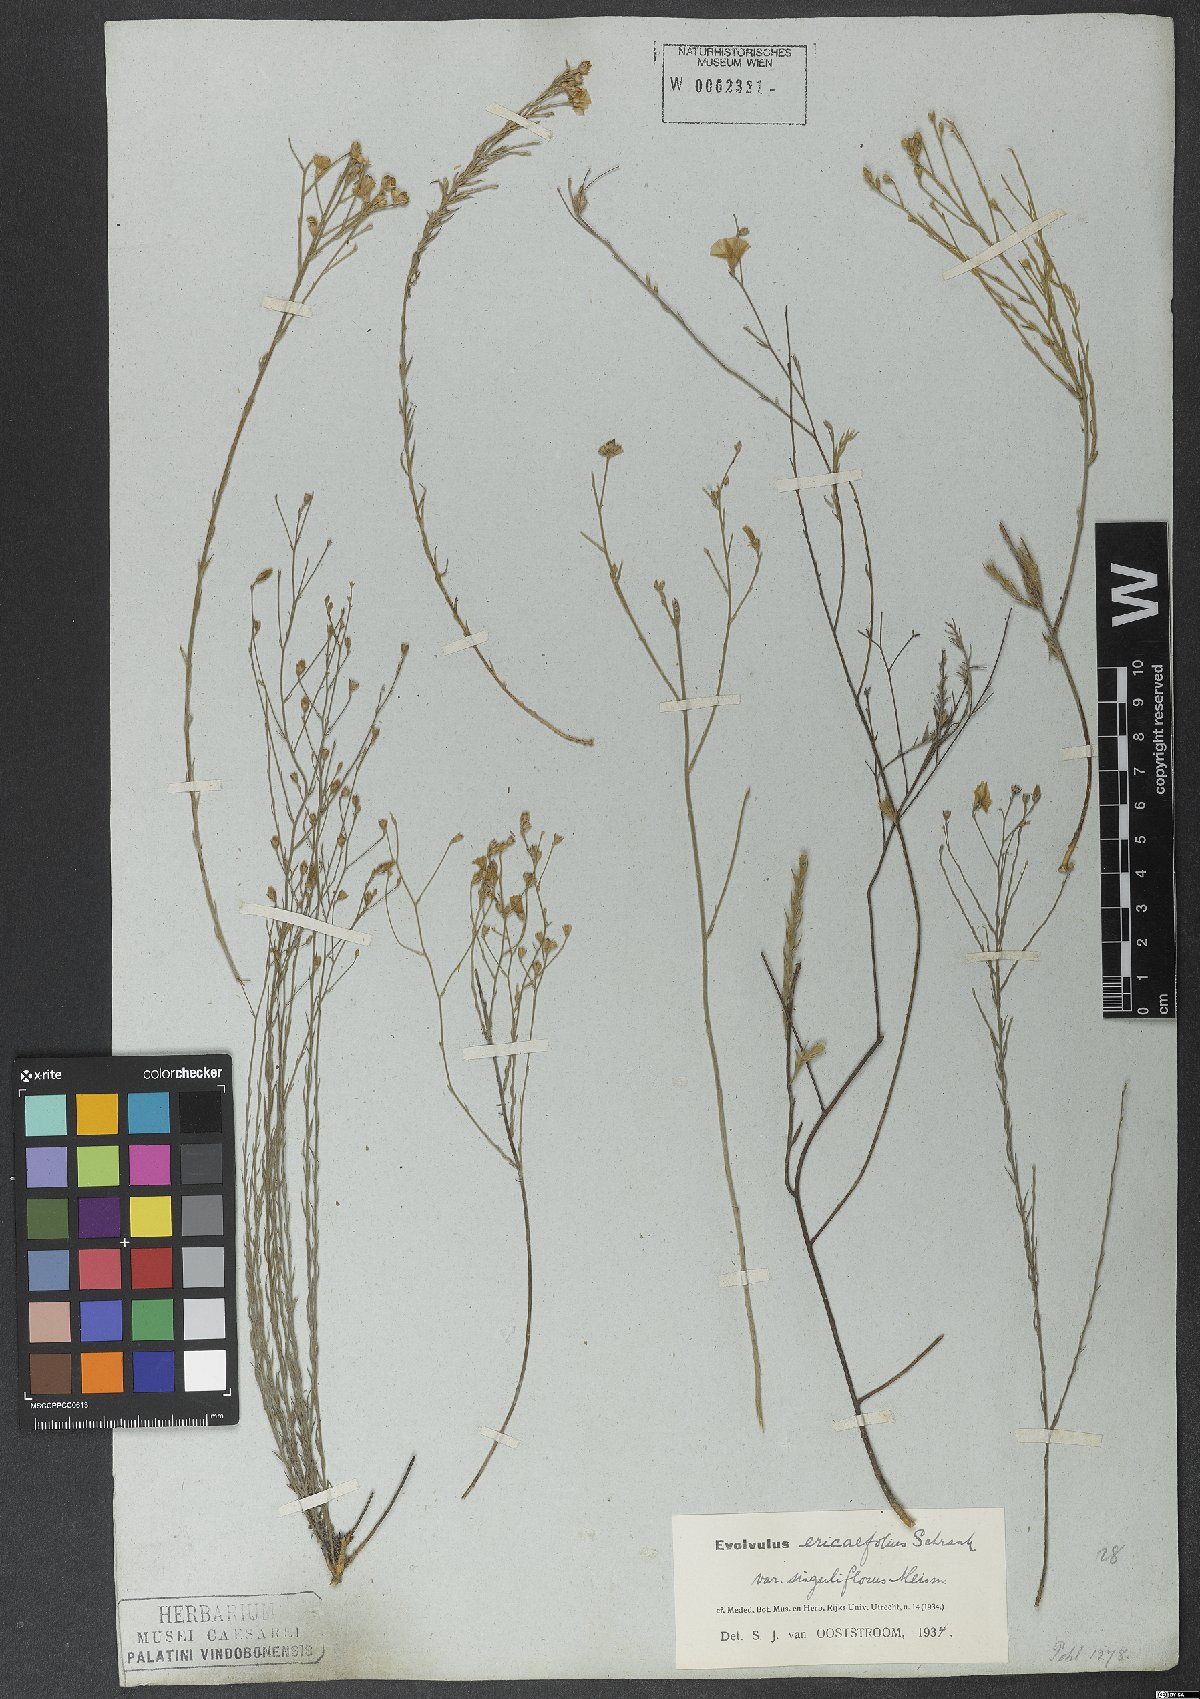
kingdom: Plantae
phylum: Tracheophyta
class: Magnoliopsida
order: Solanales
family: Convolvulaceae
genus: Evolvulus
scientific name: Evolvulus ericifolius
